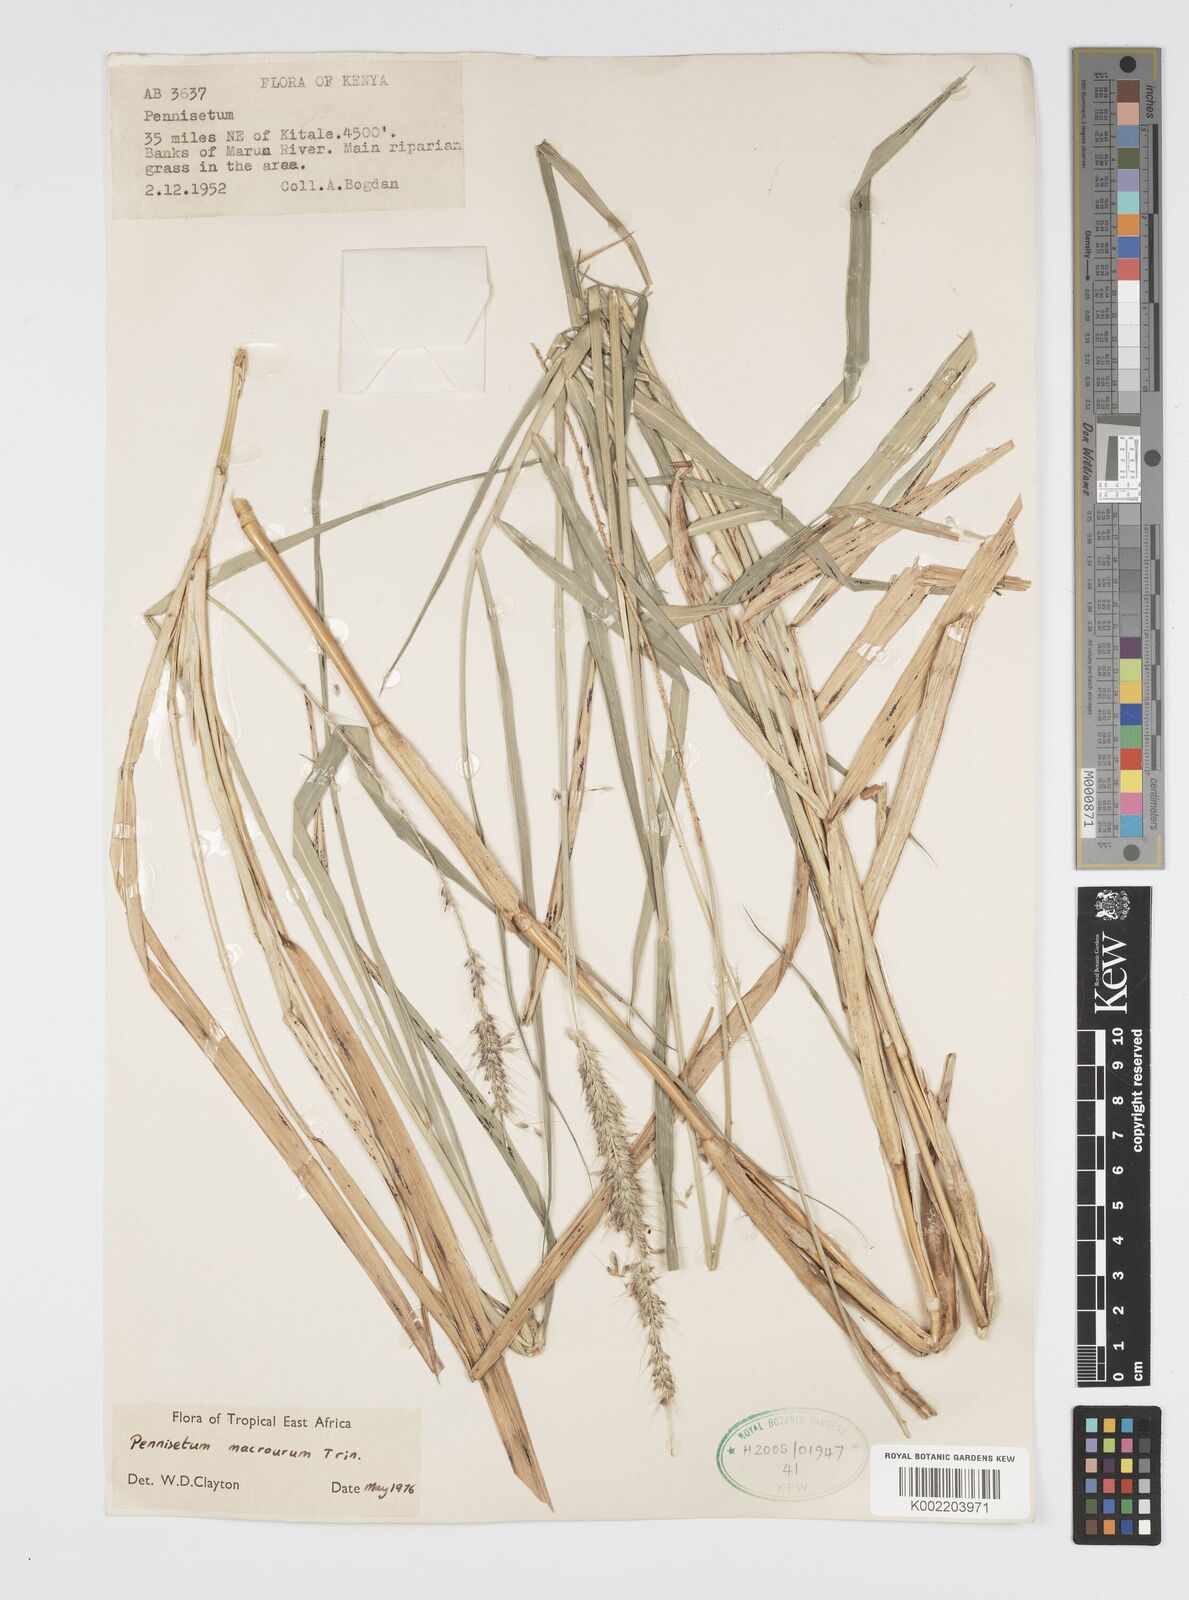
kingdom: Plantae
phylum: Tracheophyta
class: Liliopsida
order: Poales
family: Poaceae
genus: Cenchrus
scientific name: Cenchrus caudatus
